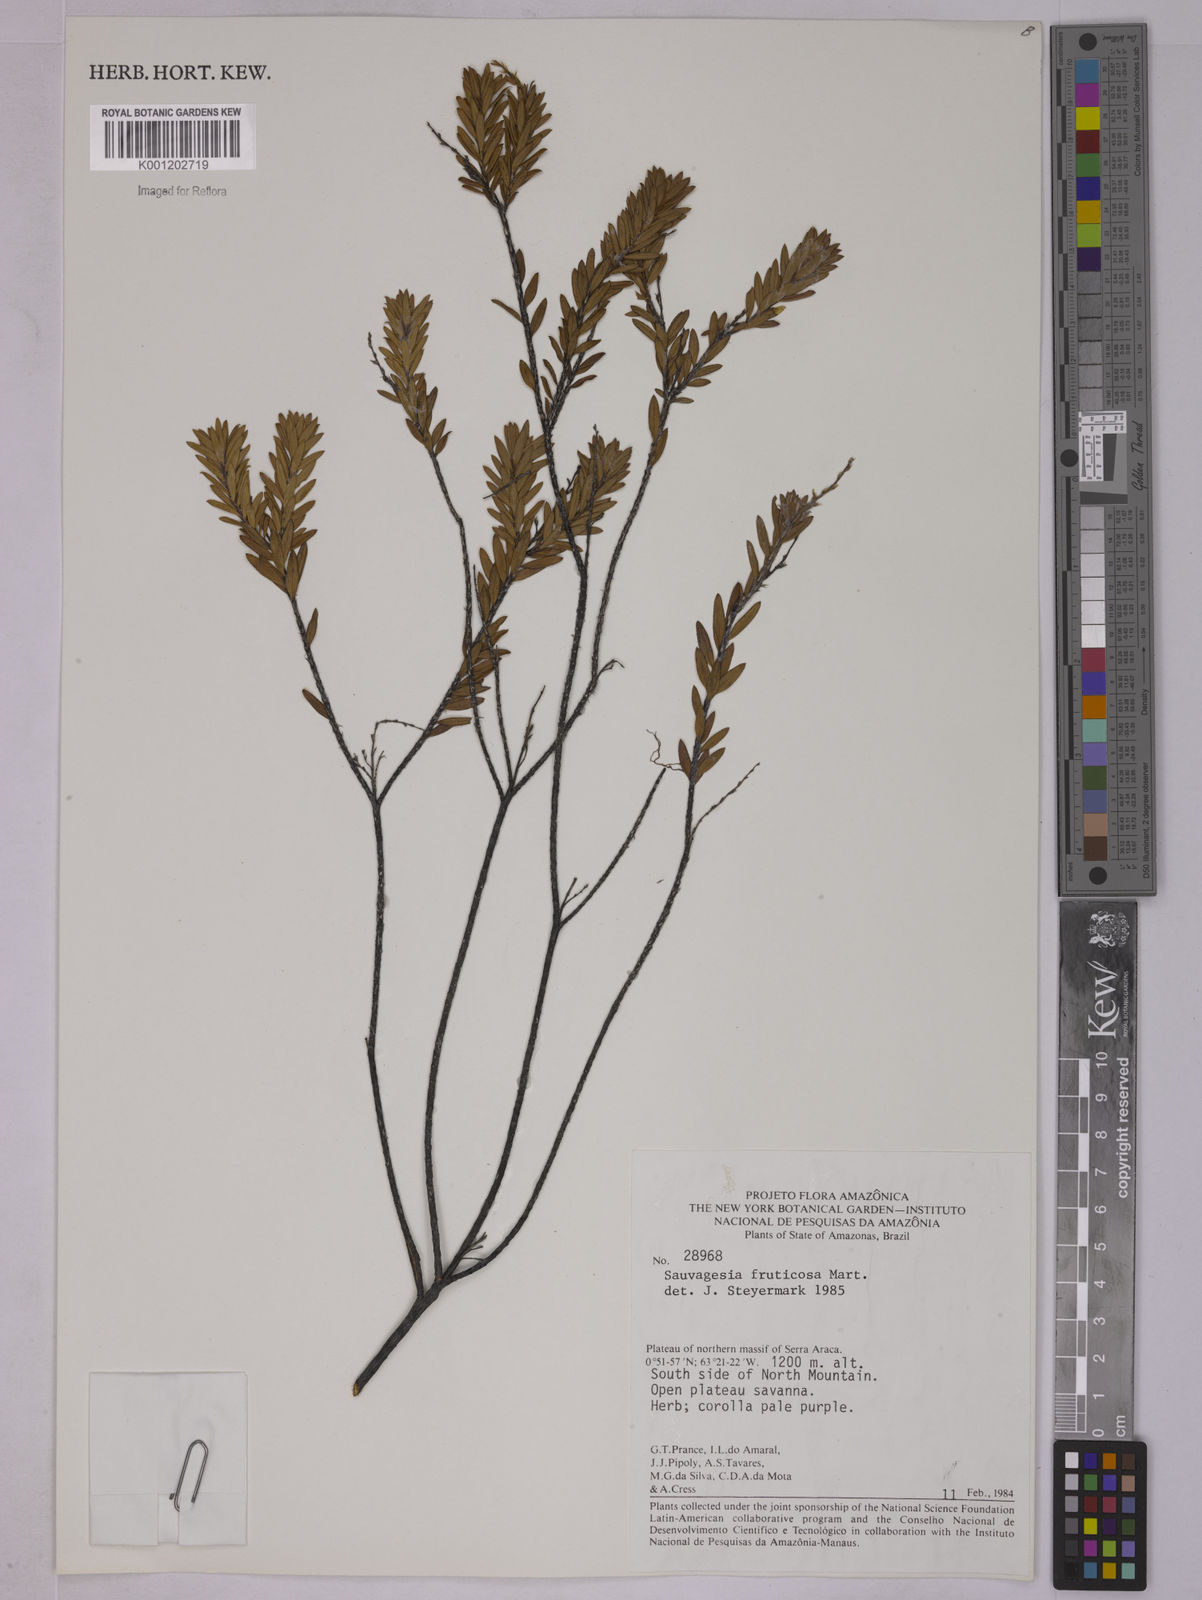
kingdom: Plantae
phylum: Tracheophyta
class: Magnoliopsida
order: Malpighiales
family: Ochnaceae
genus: Sauvagesia
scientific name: Sauvagesia fruticosa
